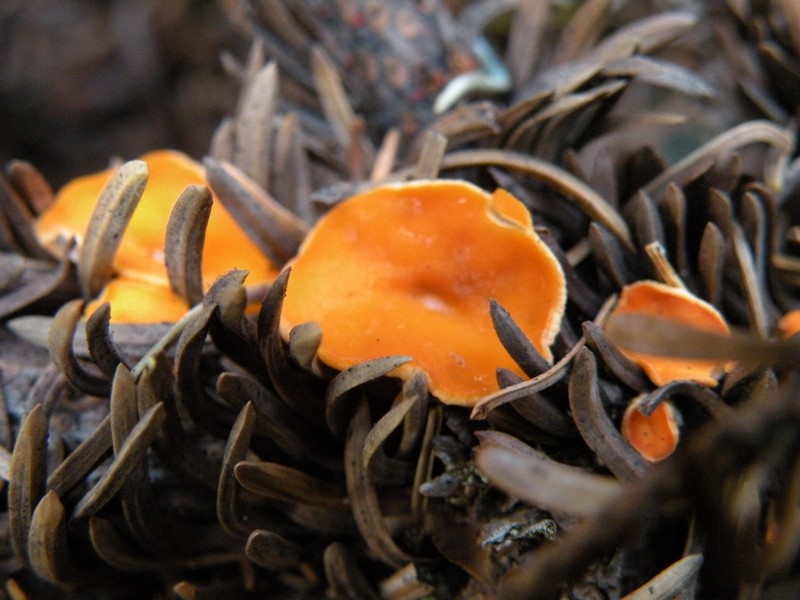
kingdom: Fungi
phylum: Ascomycota
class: Pezizomycetes
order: Pezizales
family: Sarcoscyphaceae
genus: Pithya
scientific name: Pithya vulgaris
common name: stor dukatbæger
